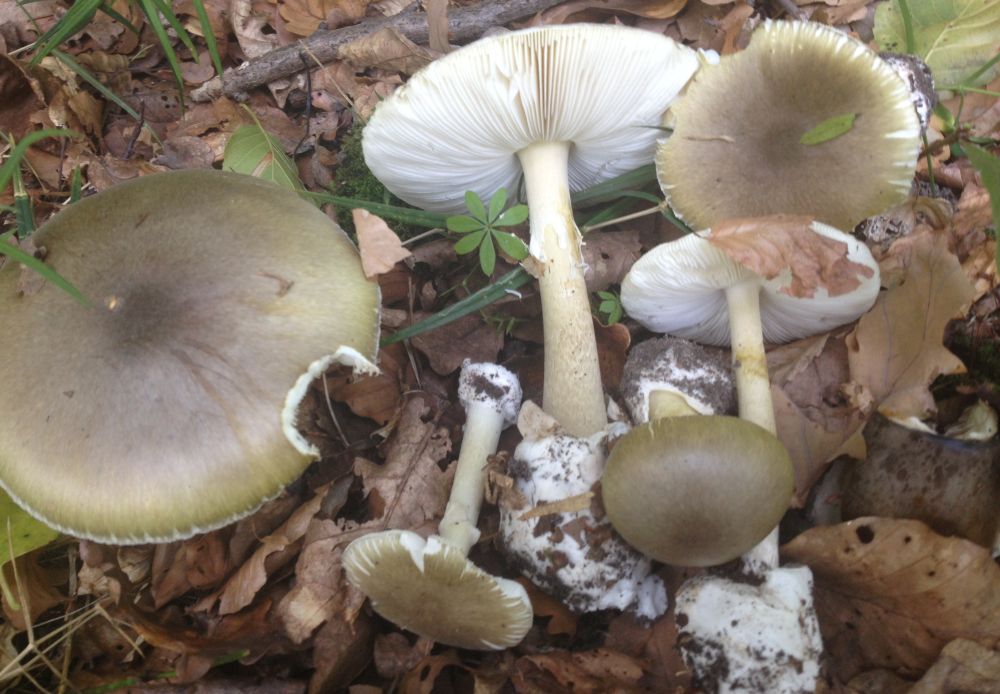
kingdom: Fungi
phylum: Basidiomycota
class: Agaricomycetes
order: Agaricales
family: Amanitaceae
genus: Amanita
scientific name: Amanita phalloides
